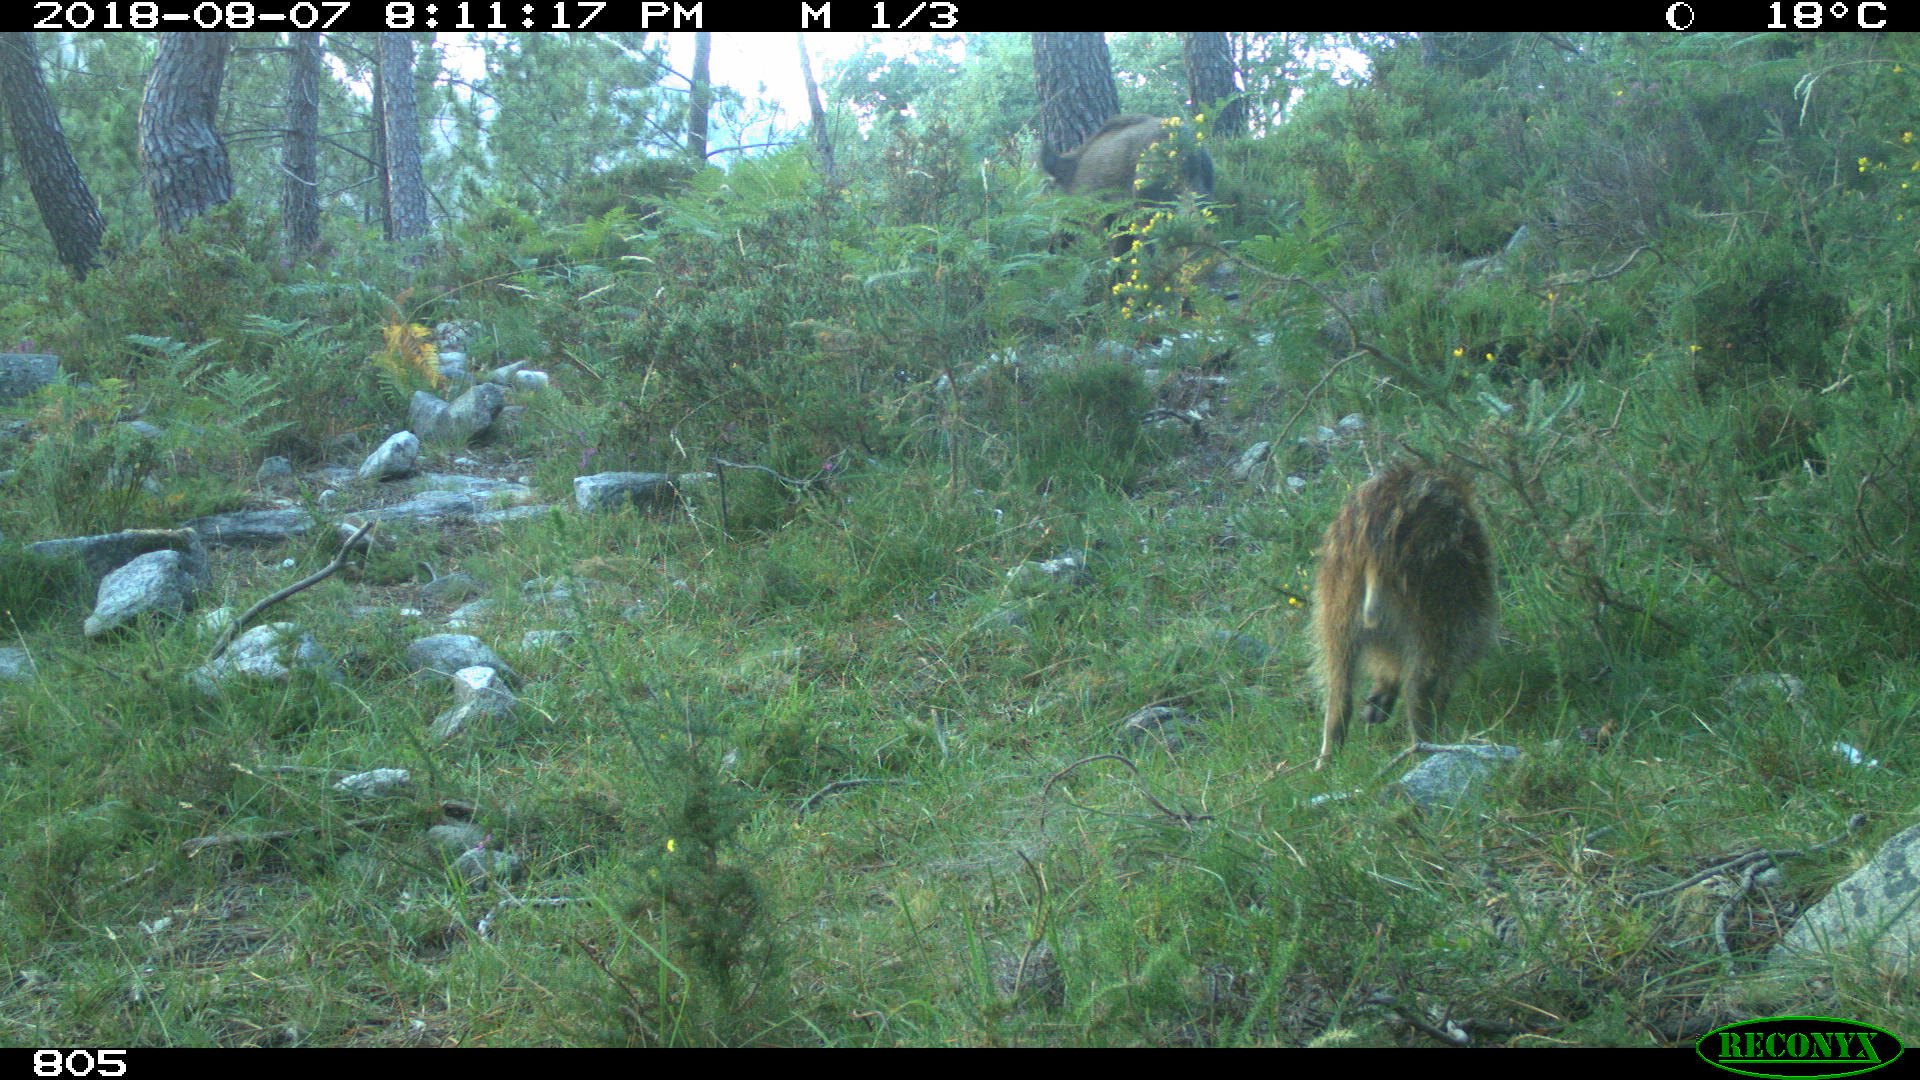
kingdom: Animalia
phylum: Chordata
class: Mammalia
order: Artiodactyla
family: Bovidae
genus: Bos
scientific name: Bos taurus
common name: Domesticated cattle
